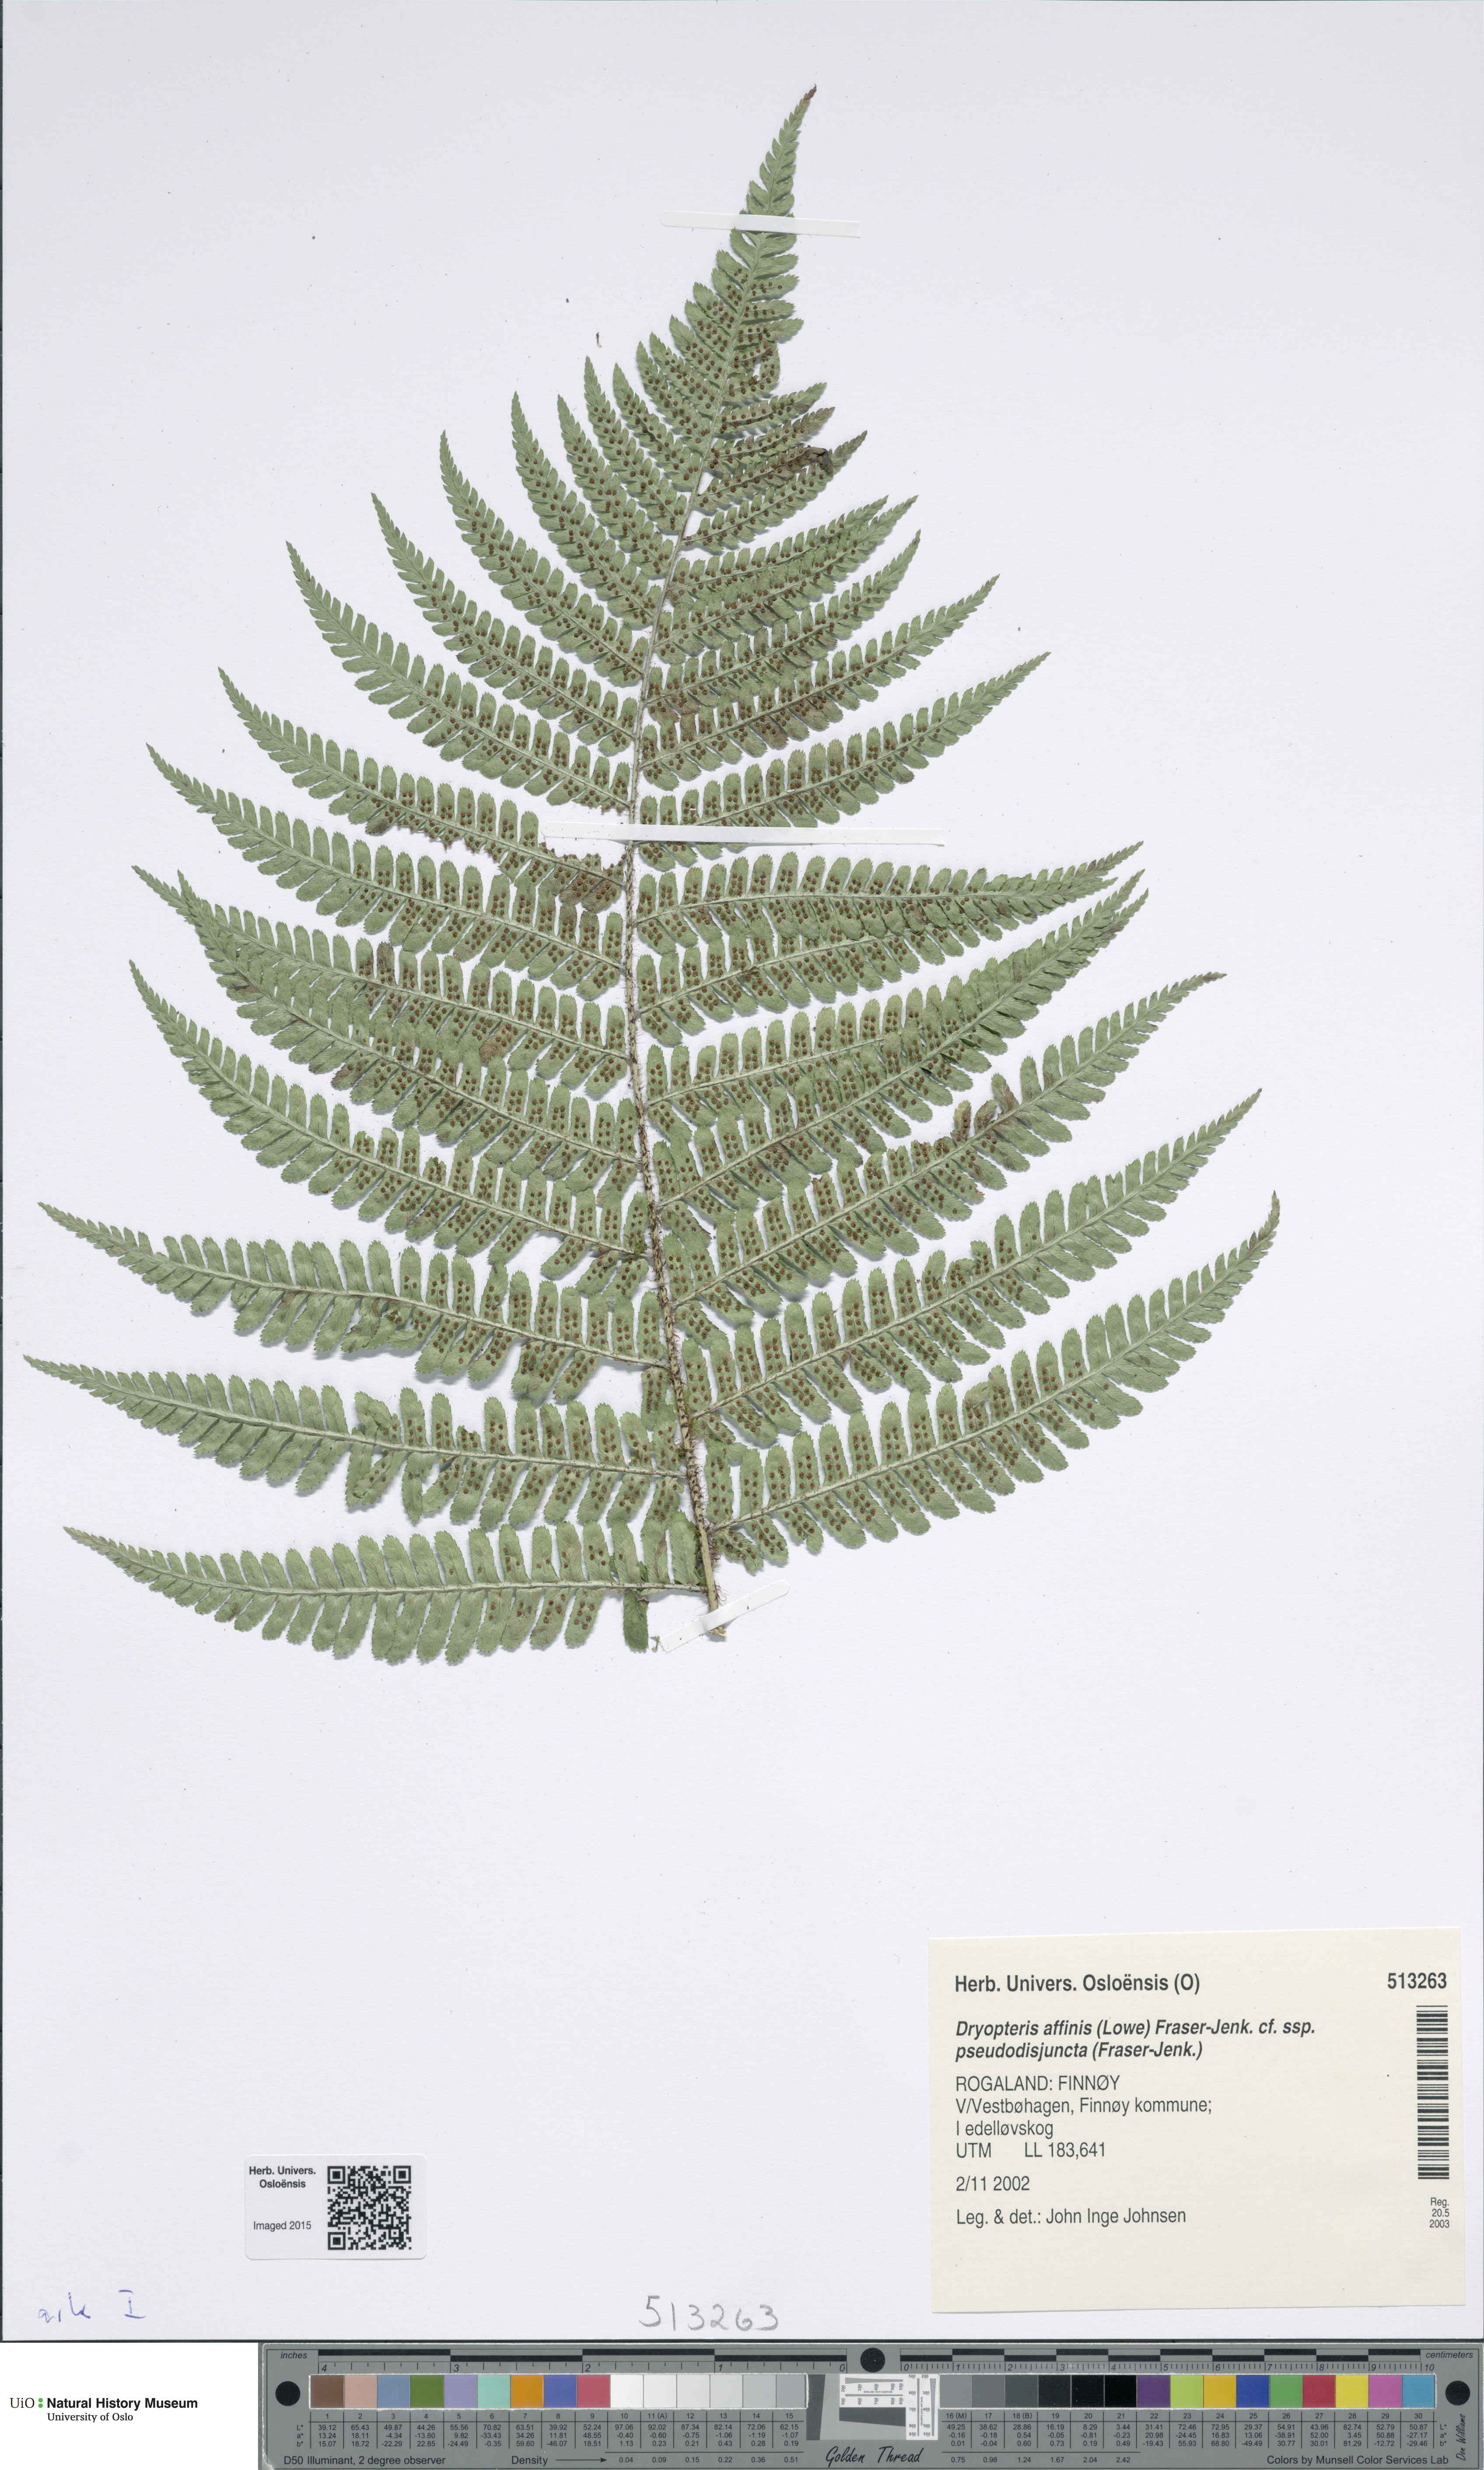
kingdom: Plantae
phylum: Tracheophyta
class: Polypodiopsida
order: Polypodiales
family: Dryopteridaceae
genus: Dryopteris
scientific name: Dryopteris pseudodisjuncta
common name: Elegant male-fern
